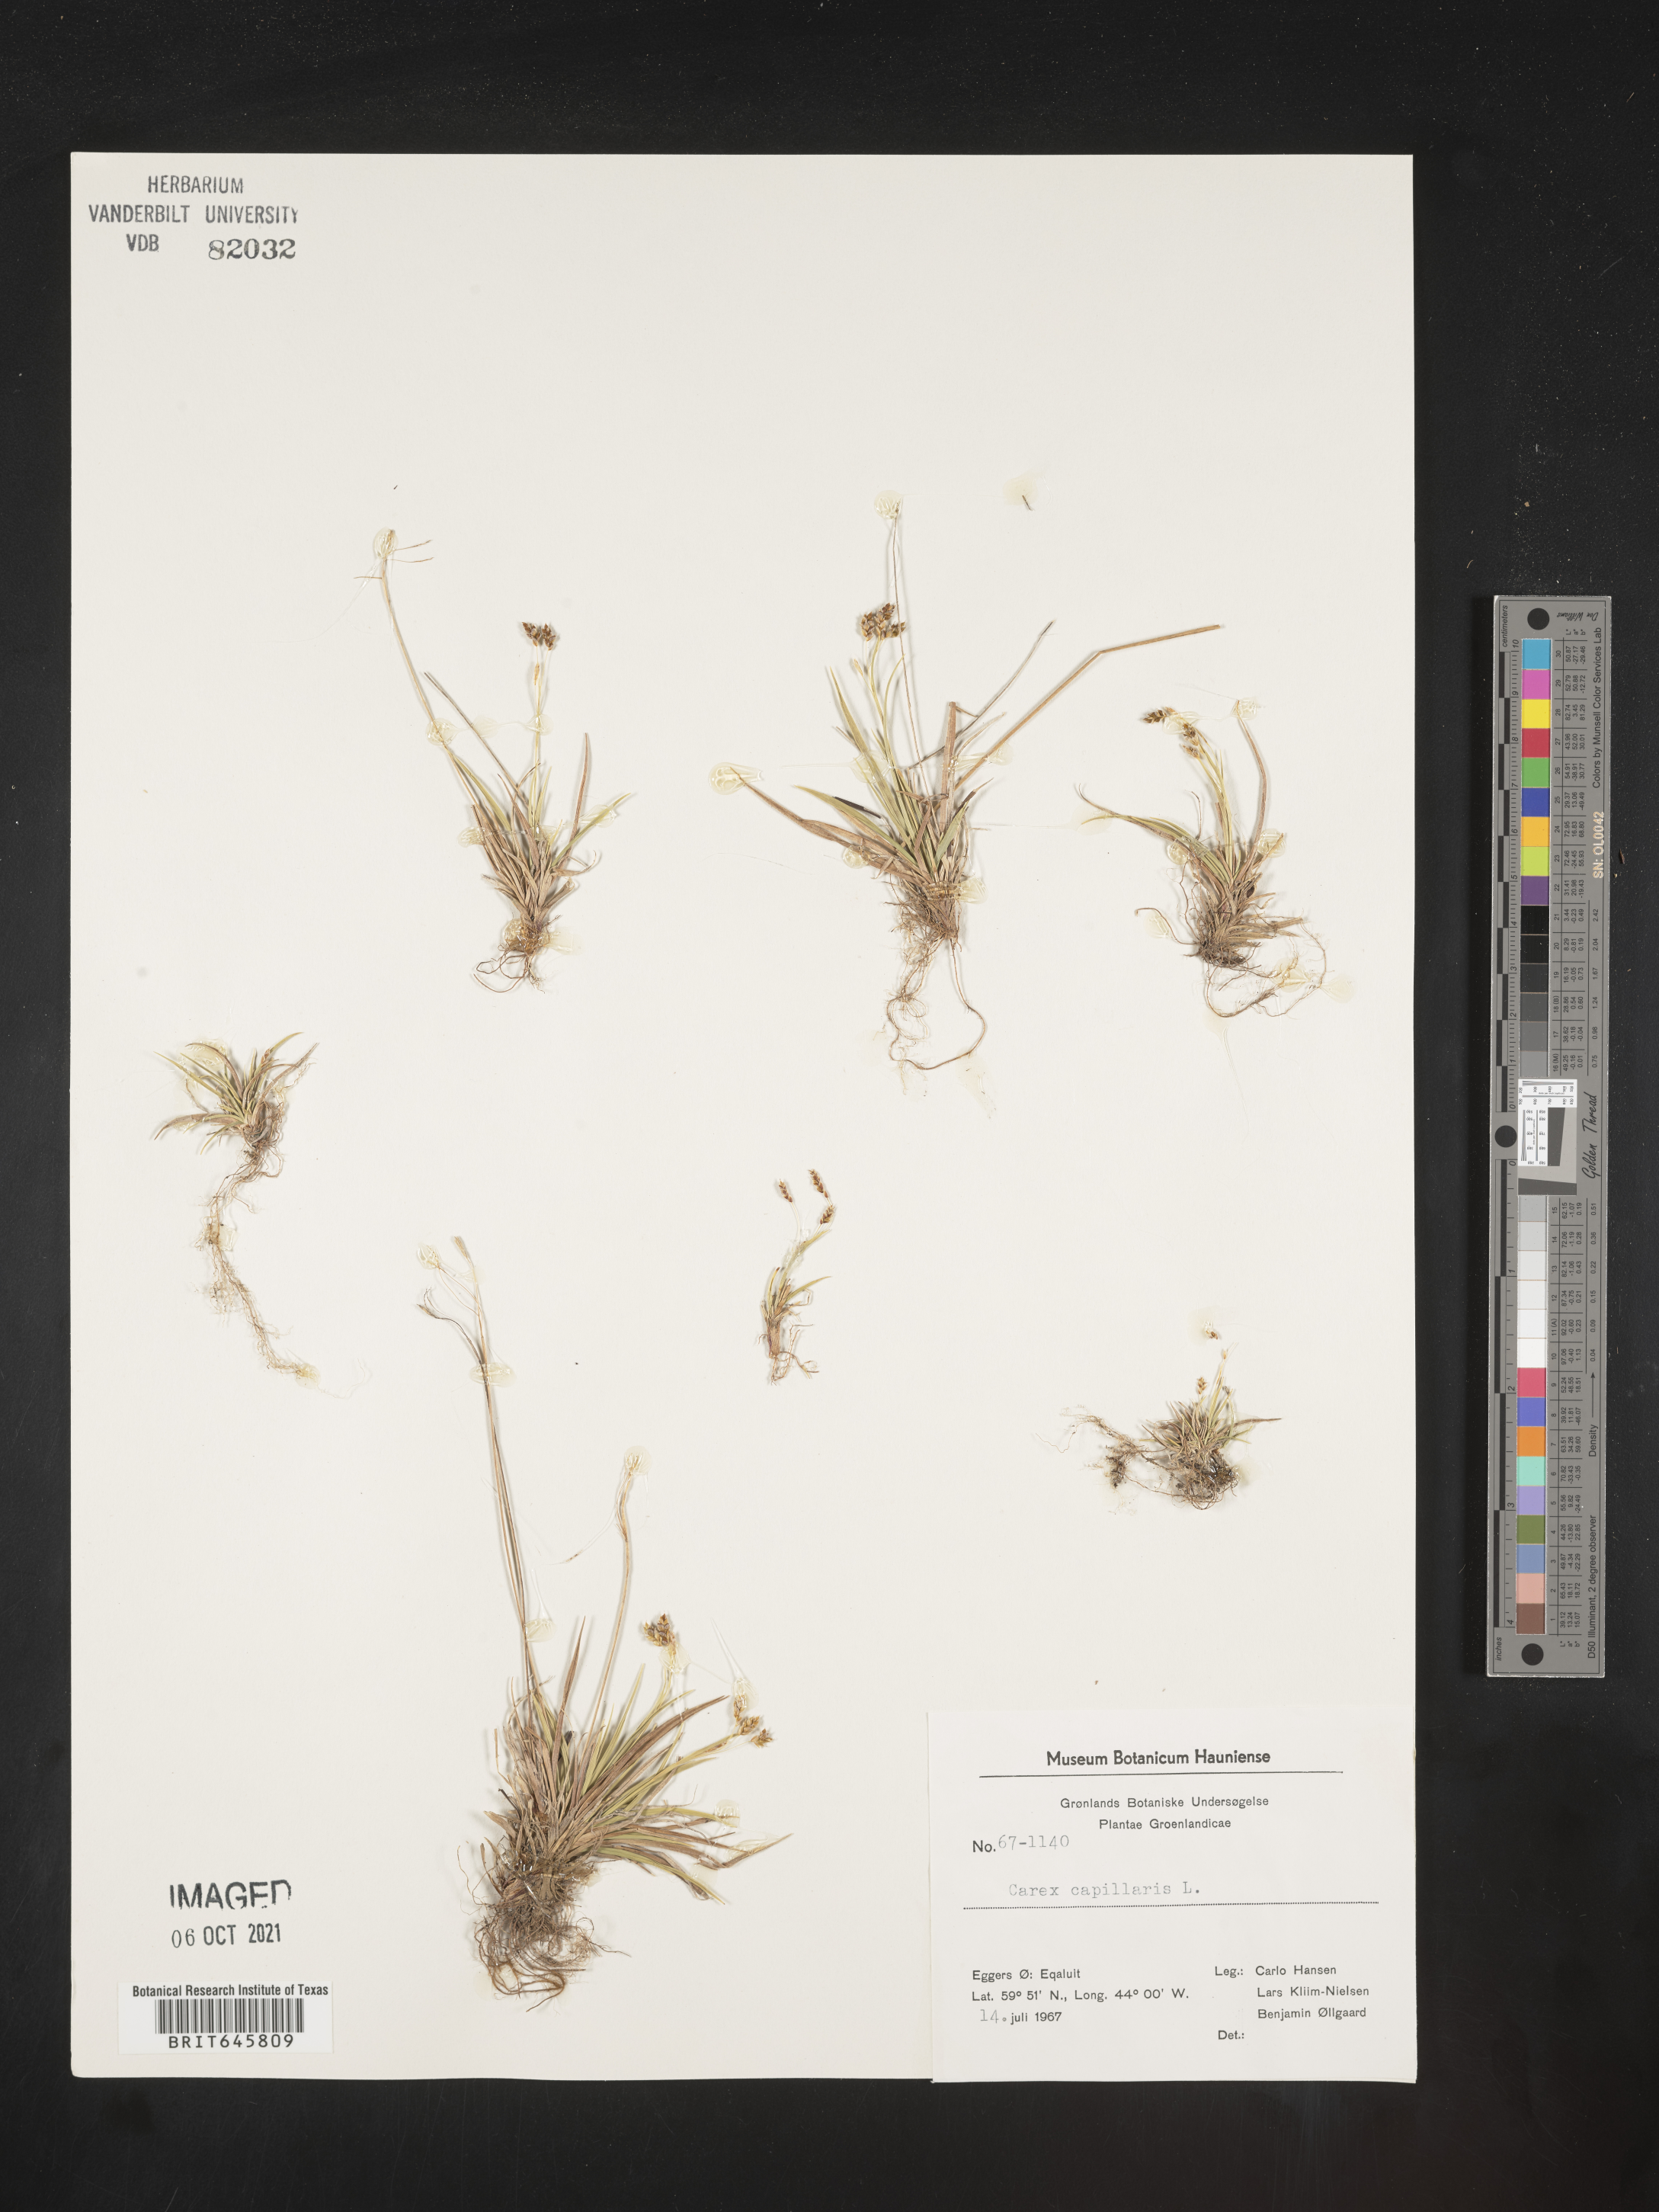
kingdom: Plantae
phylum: Tracheophyta
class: Liliopsida
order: Poales
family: Cyperaceae
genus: Carex
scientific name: Carex capillaris
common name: Hair sedge
